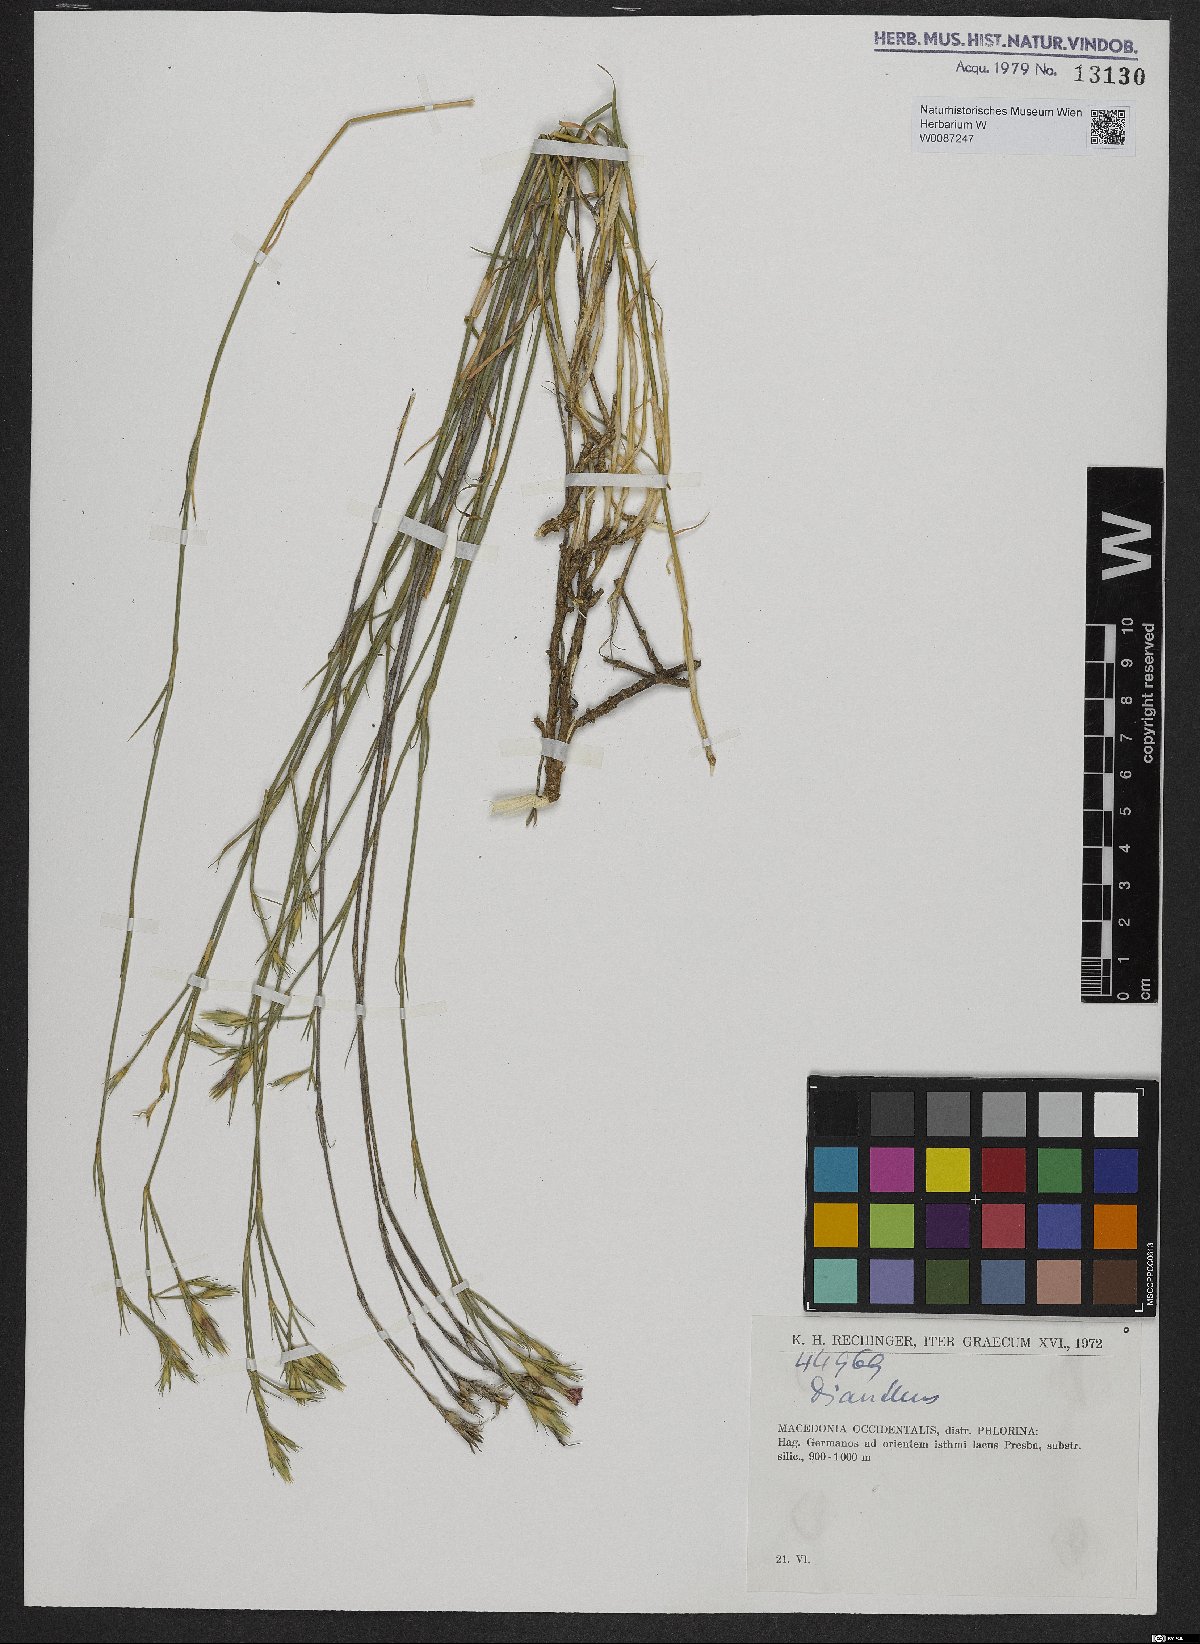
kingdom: Plantae
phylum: Tracheophyta
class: Magnoliopsida
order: Caryophyllales
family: Caryophyllaceae
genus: Dianthus
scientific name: Dianthus
